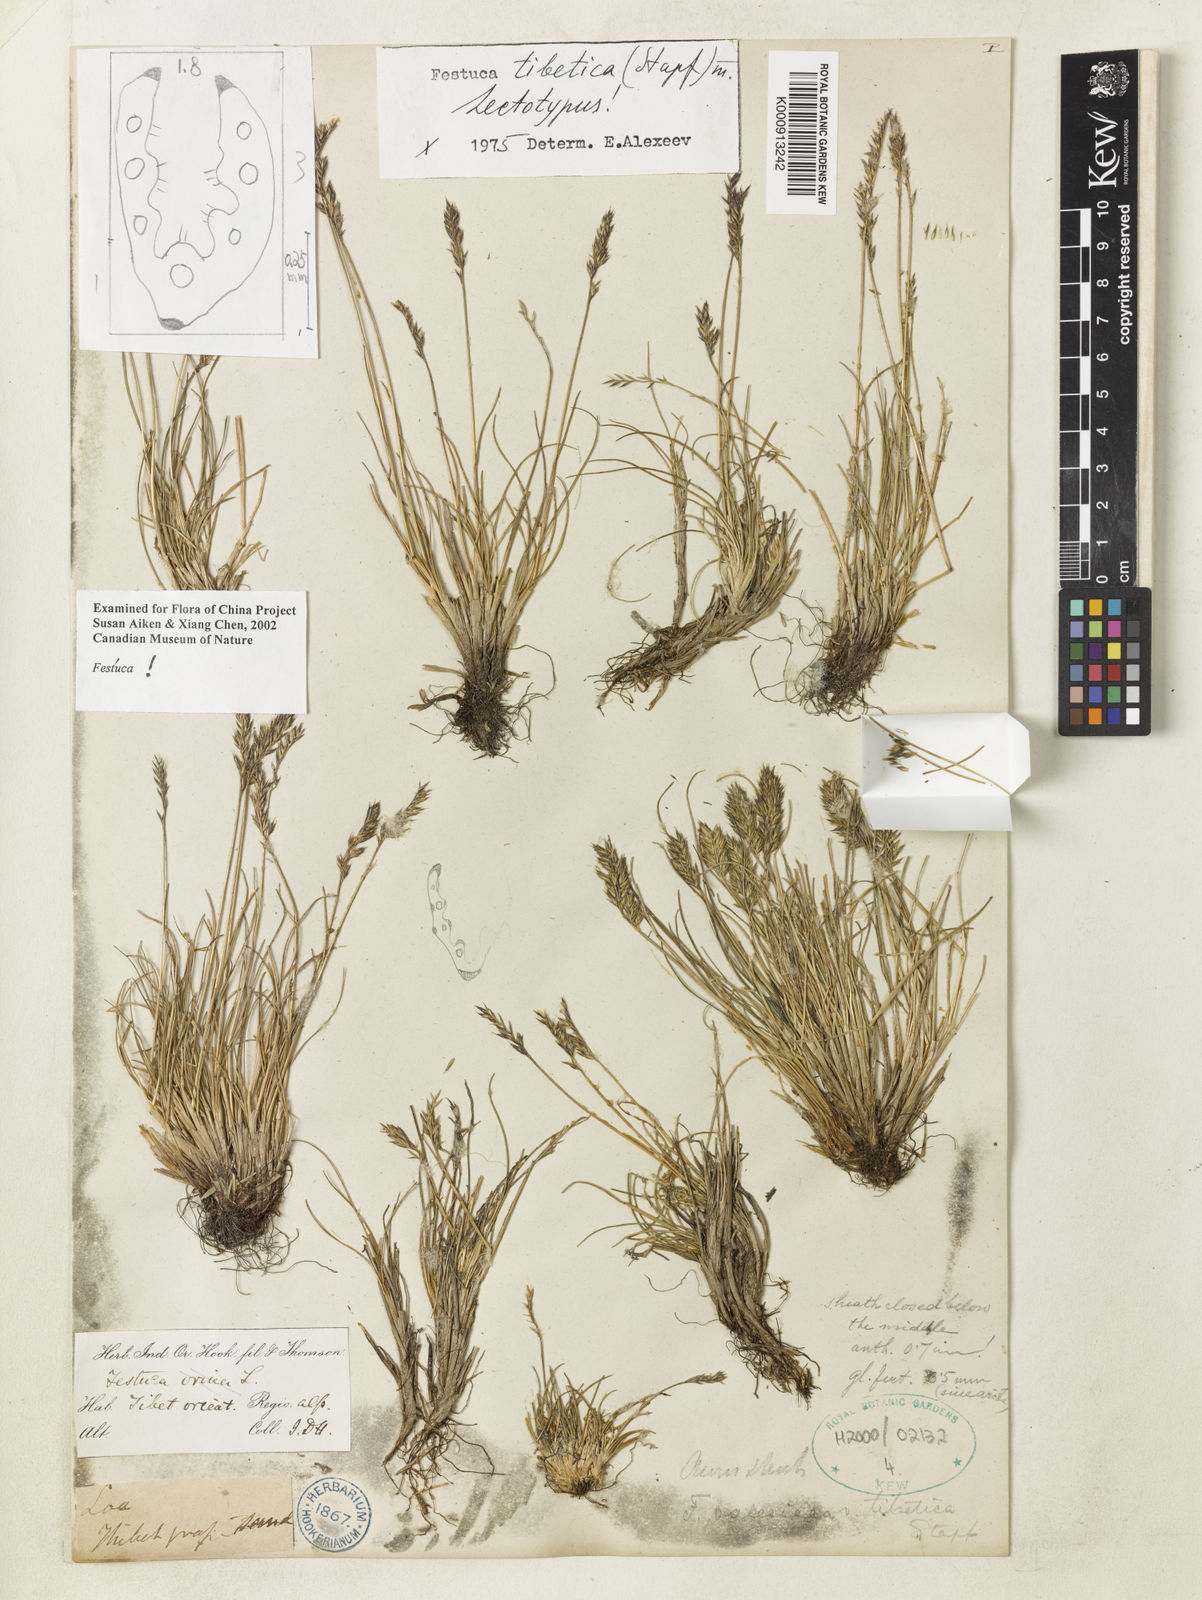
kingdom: Plantae
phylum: Tracheophyta
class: Liliopsida
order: Poales
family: Poaceae
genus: Festuca
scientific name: Festuca tibetica
